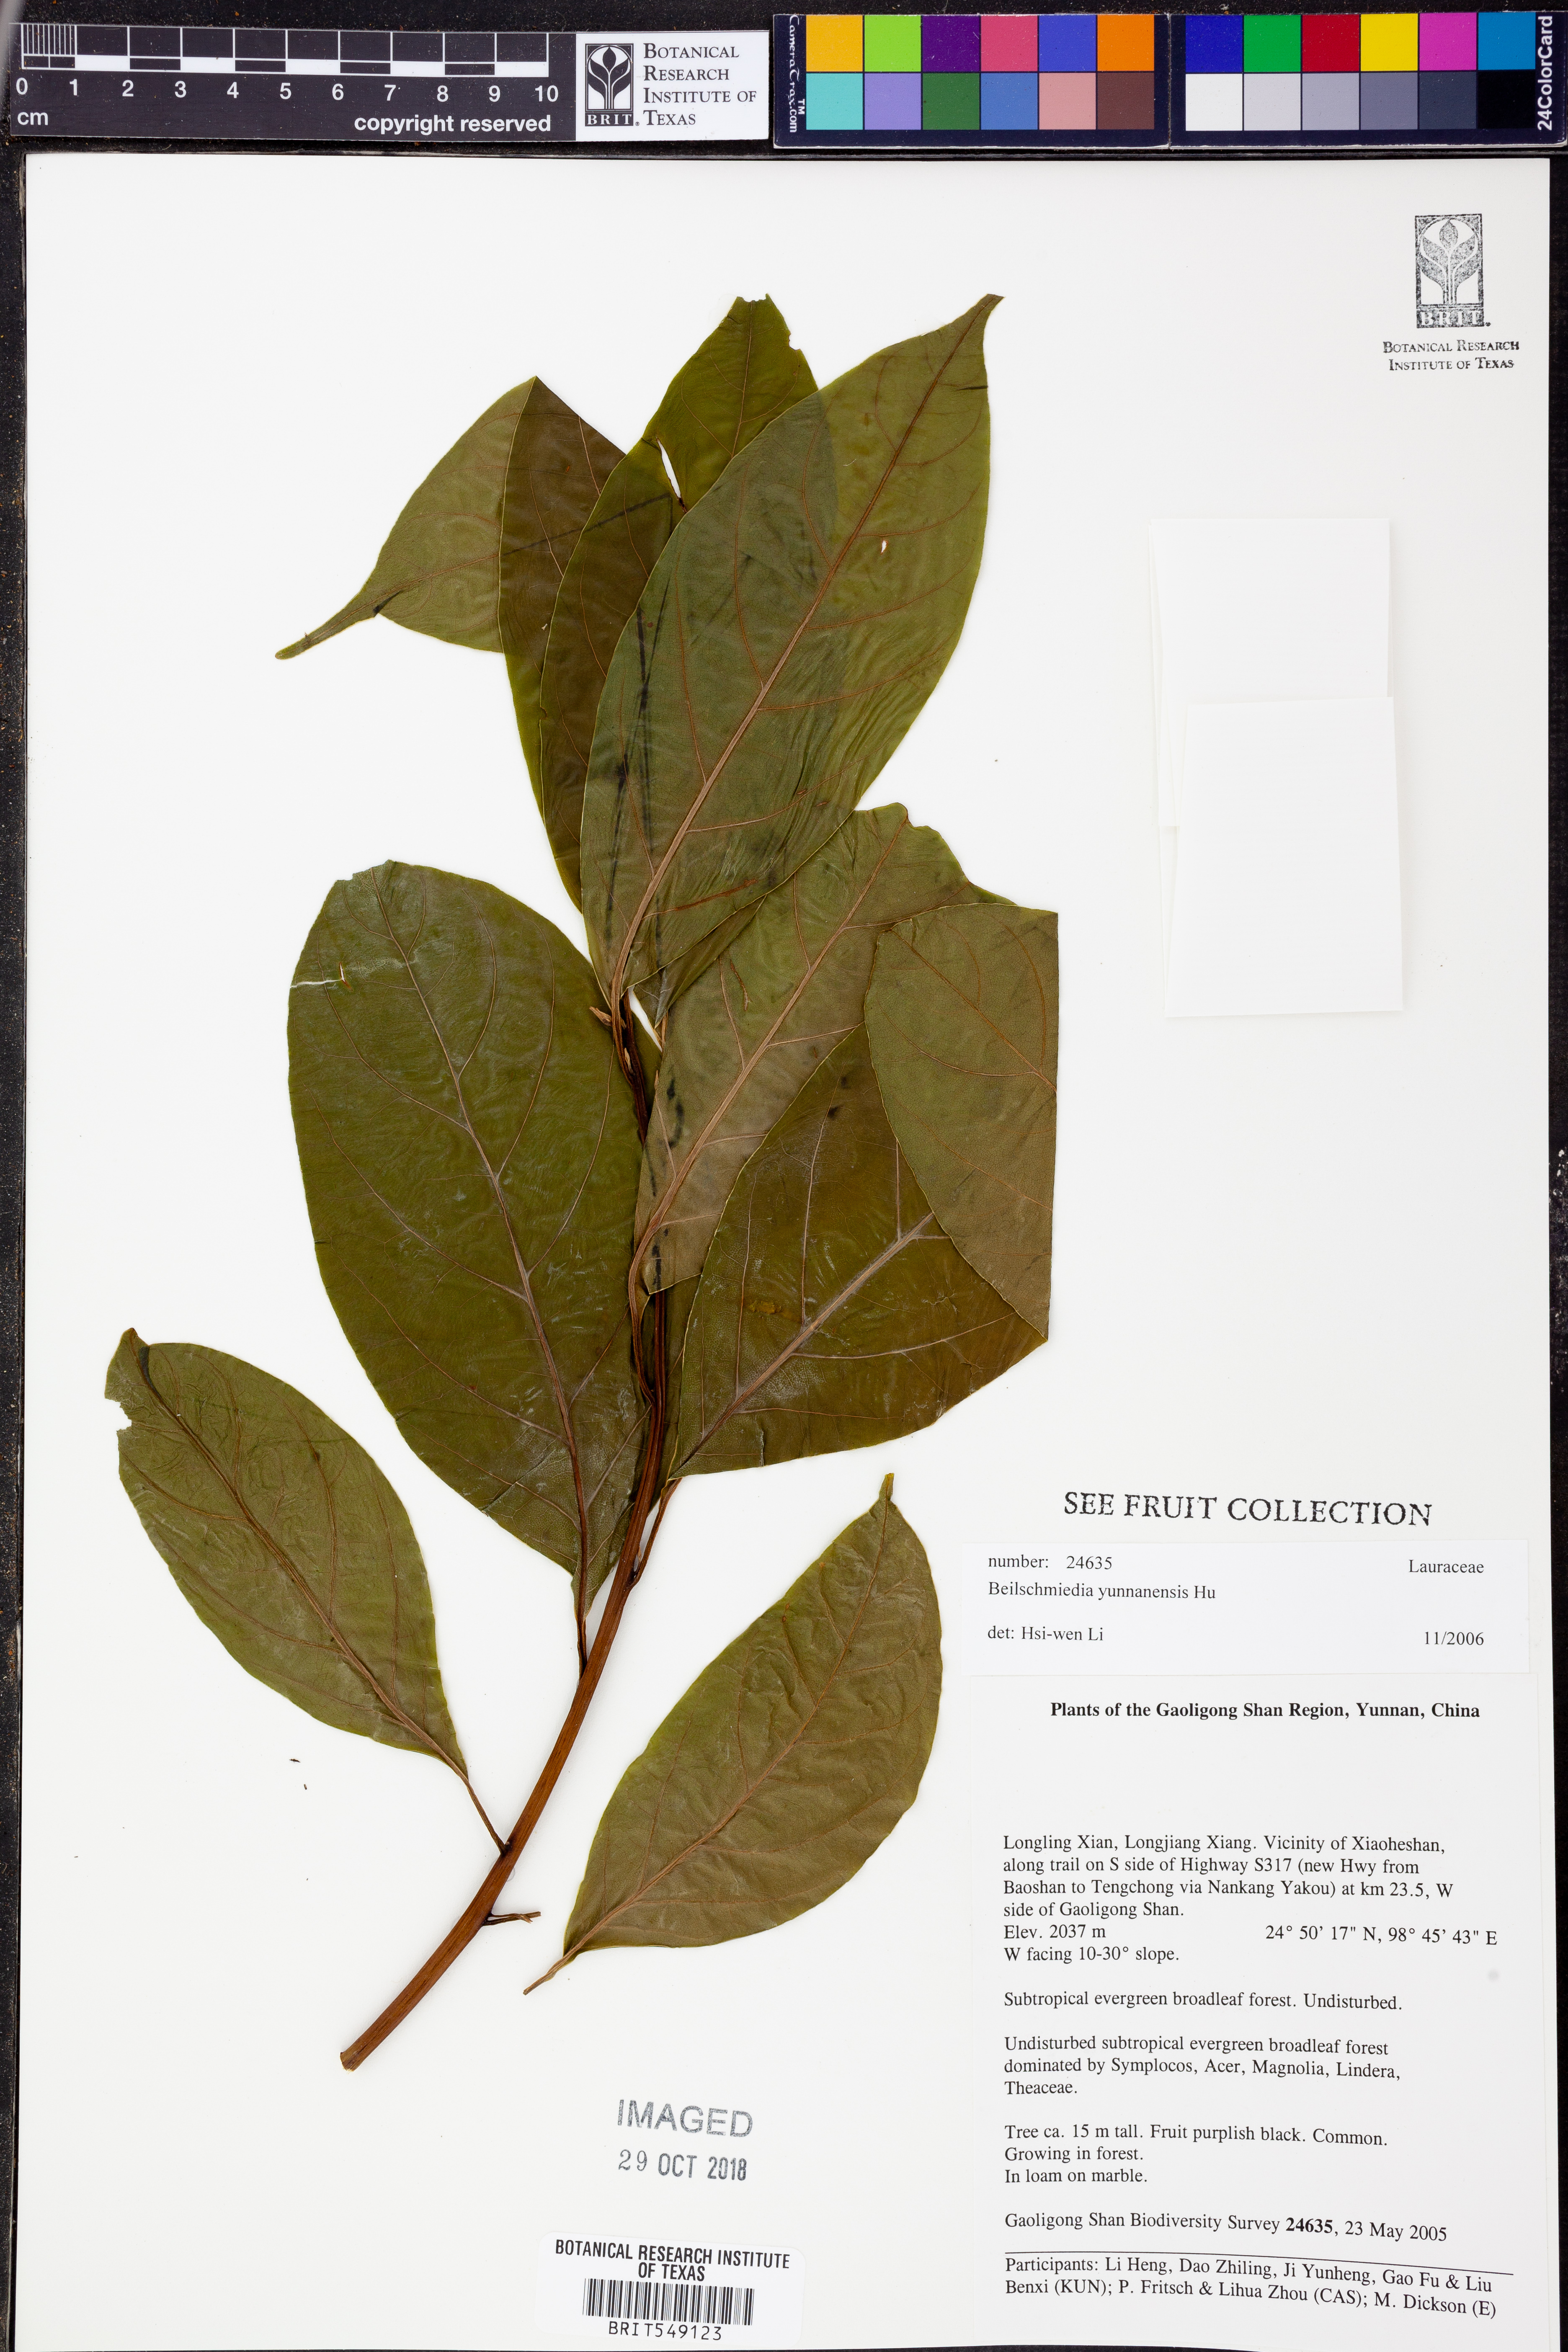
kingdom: Plantae
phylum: Tracheophyta
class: Magnoliopsida
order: Laurales
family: Lauraceae
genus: Beilschmiedia
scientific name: Beilschmiedia yunnanensis
